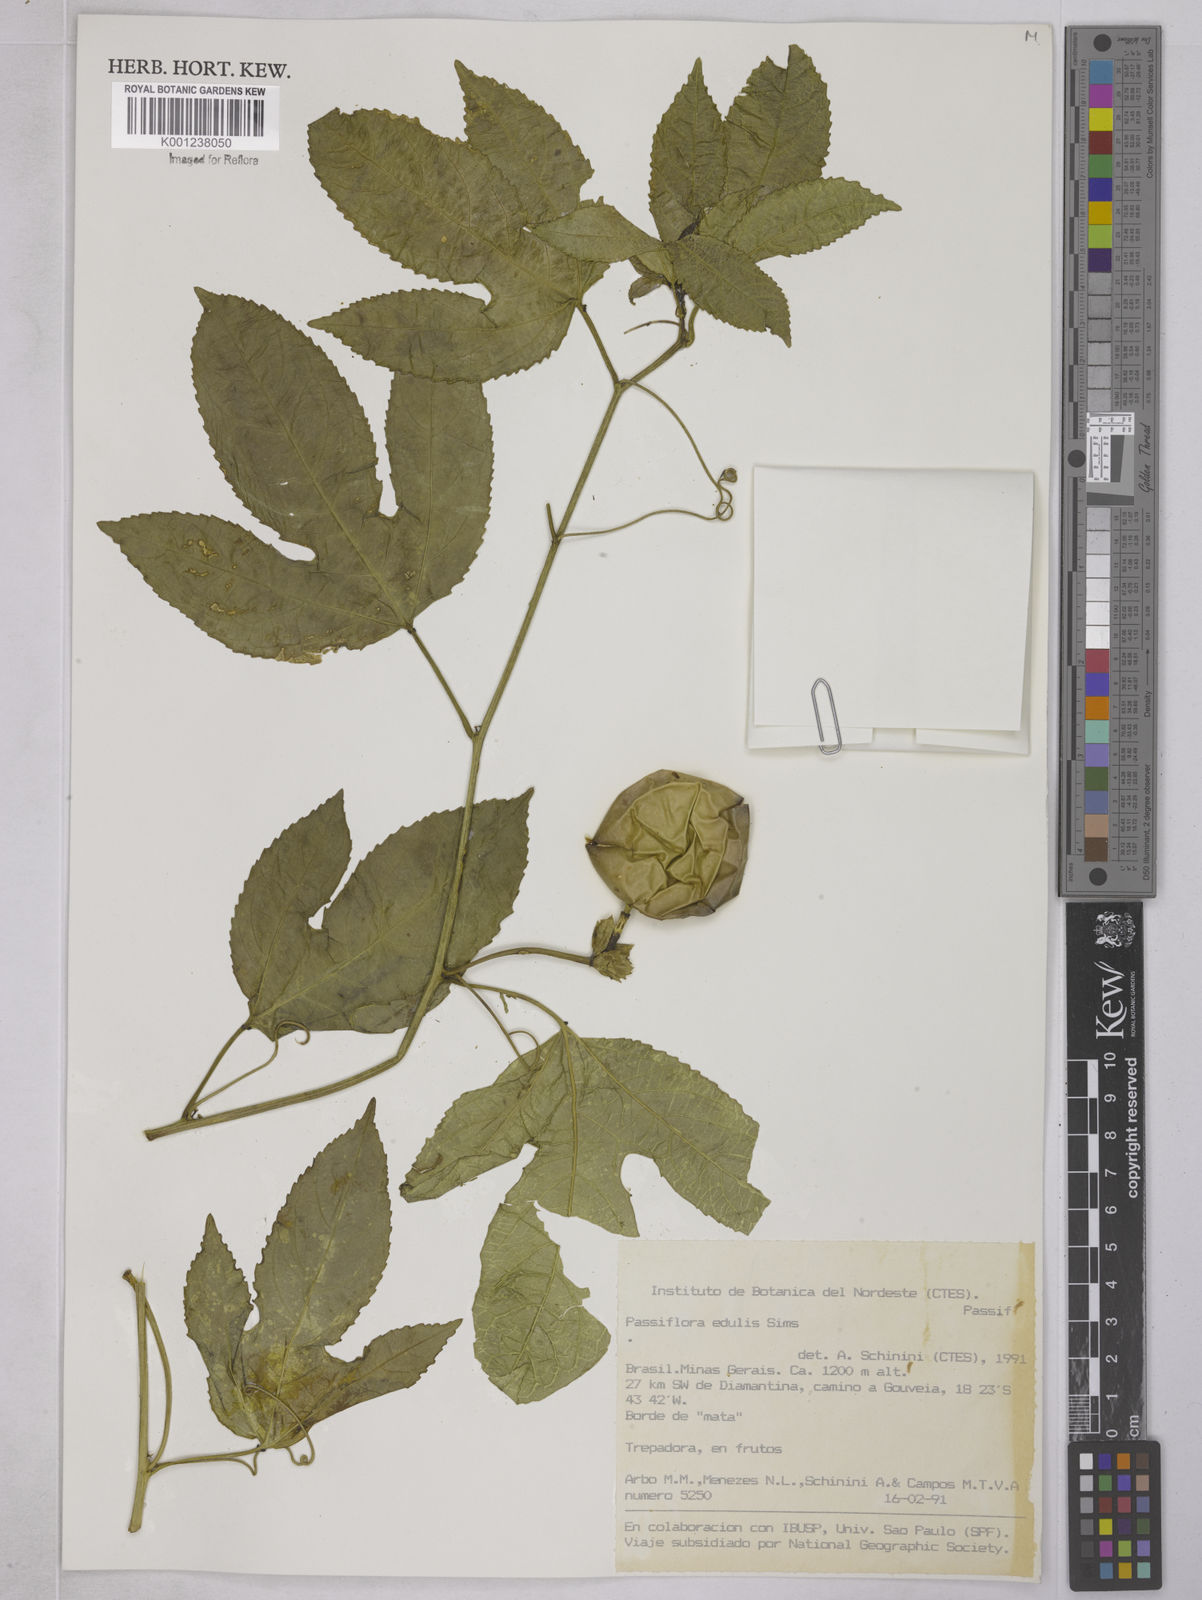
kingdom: Plantae
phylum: Tracheophyta
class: Magnoliopsida
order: Malpighiales
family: Passifloraceae
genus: Passiflora
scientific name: Passiflora edulis
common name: Purple granadilla
